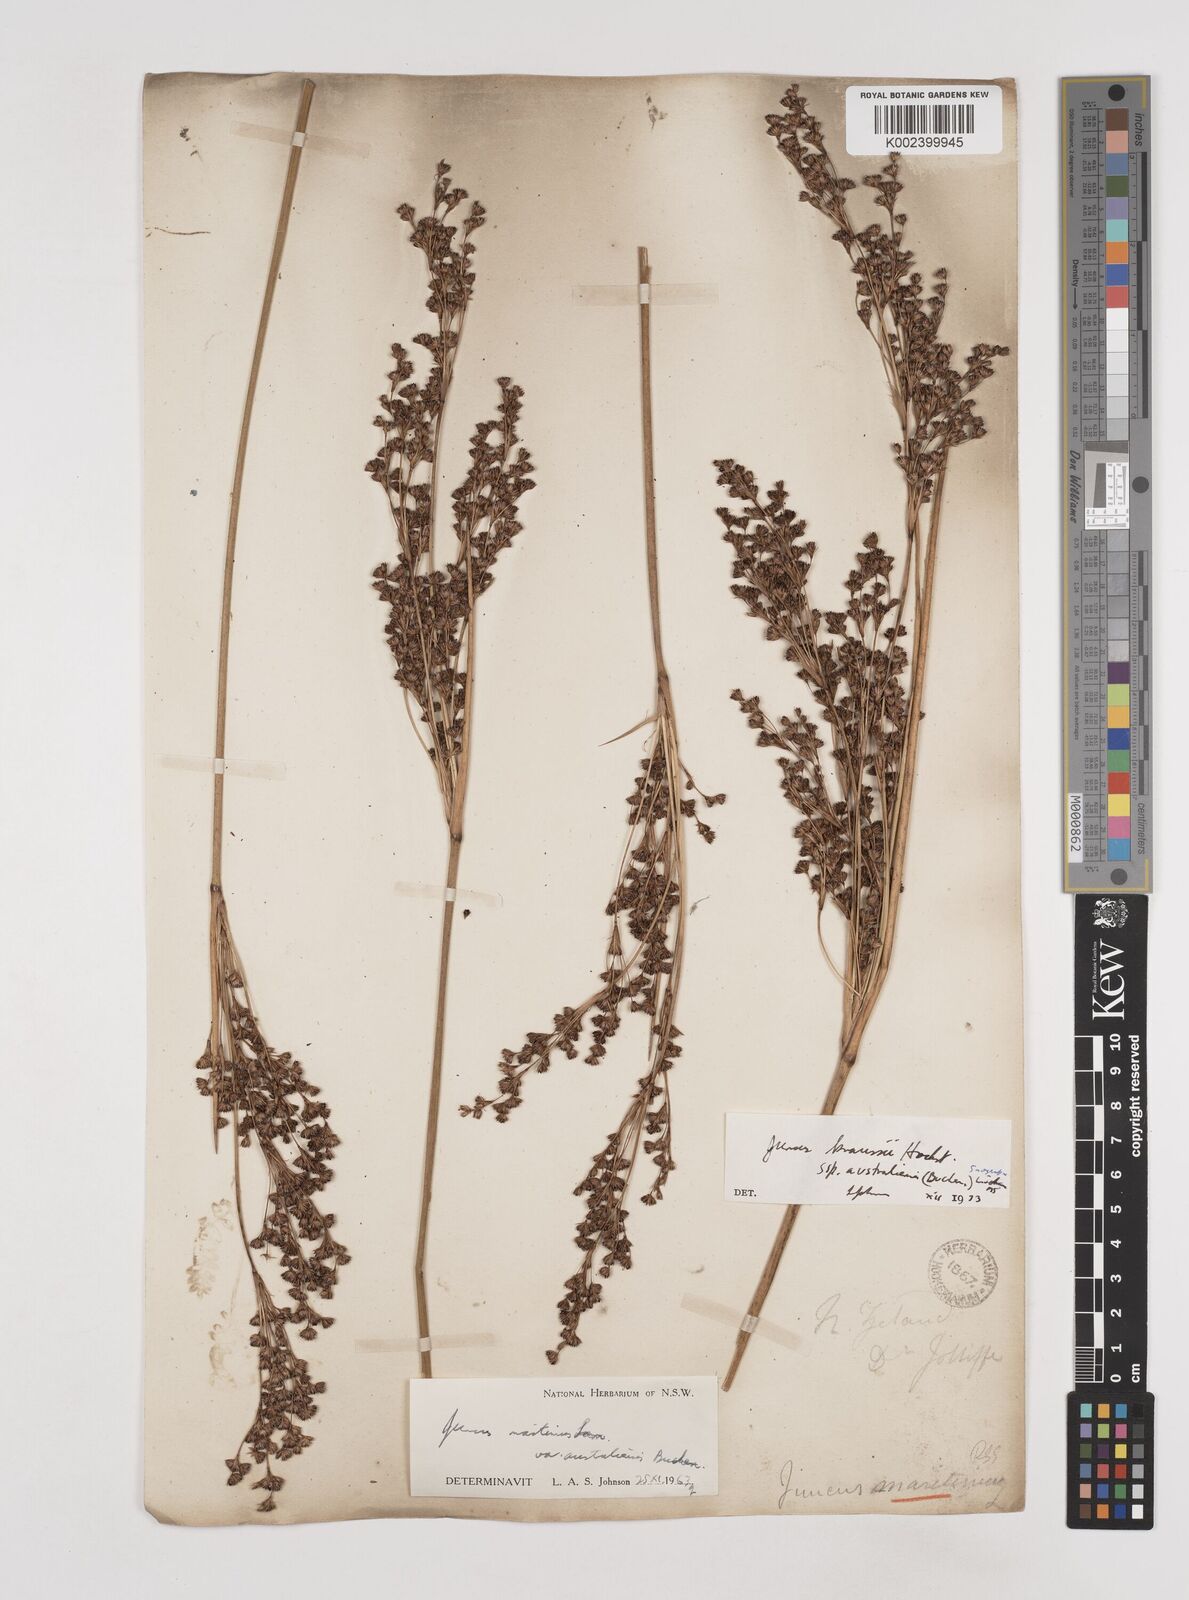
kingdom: Plantae
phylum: Tracheophyta
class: Liliopsida
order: Poales
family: Juncaceae
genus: Juncus
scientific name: Juncus kraussii
